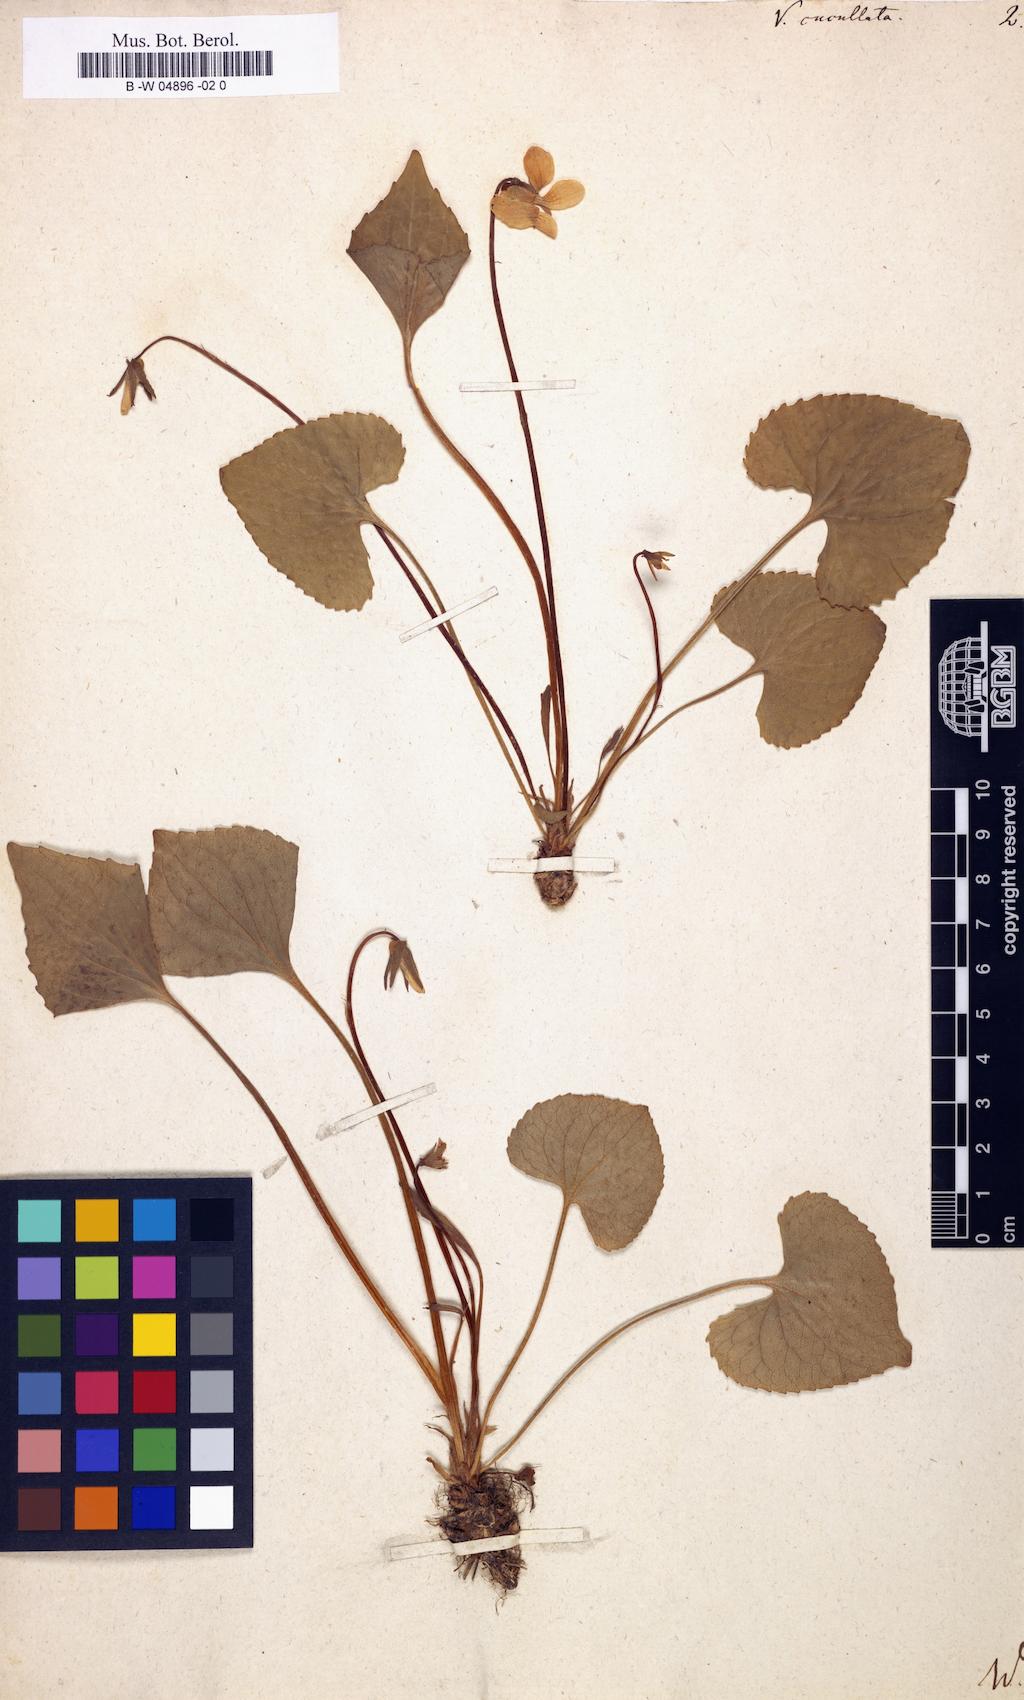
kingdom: Plantae
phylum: Tracheophyta
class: Magnoliopsida
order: Malpighiales
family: Violaceae
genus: Viola
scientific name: Viola cucullata
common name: Marsh blue violet
